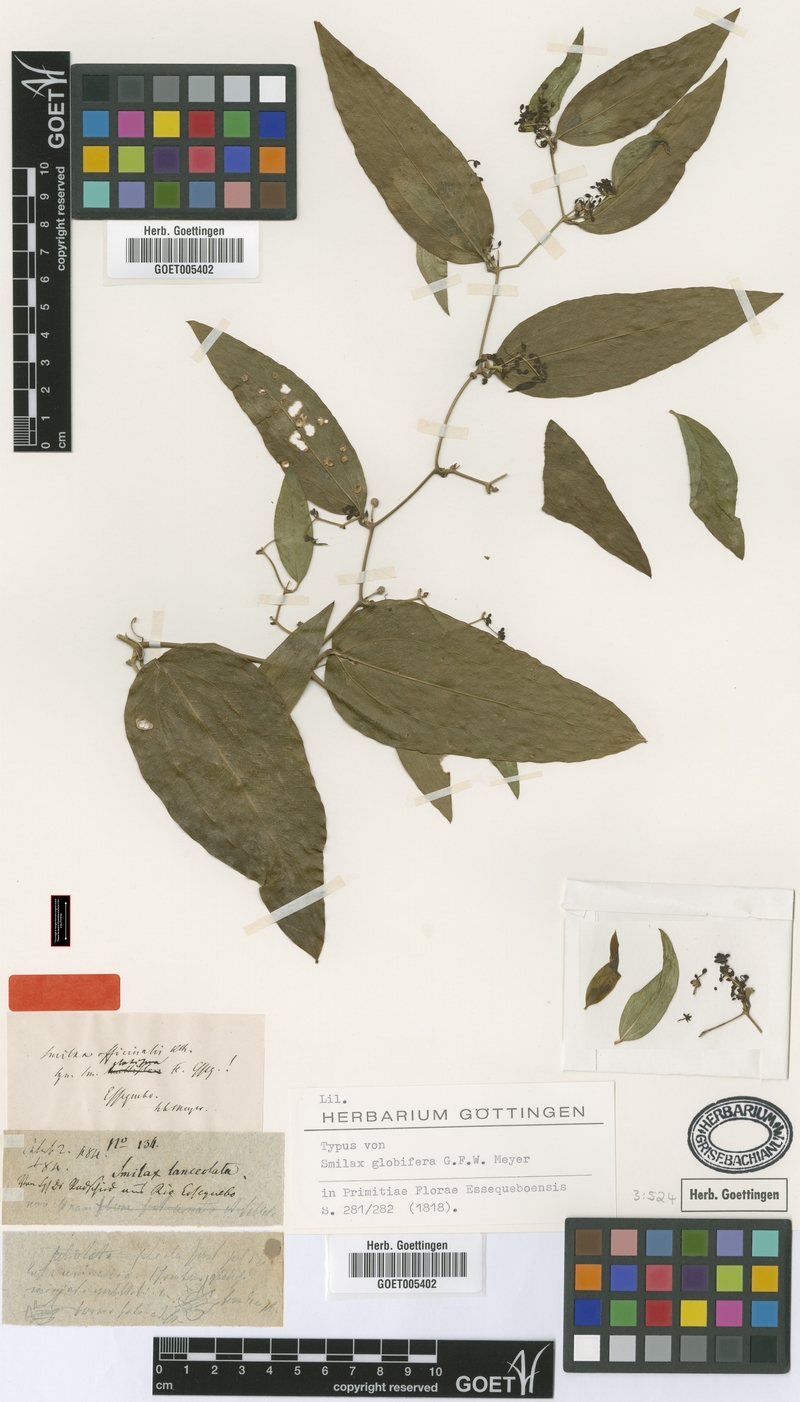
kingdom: Plantae
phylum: Tracheophyta
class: Liliopsida
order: Liliales
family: Smilacaceae
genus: Smilax
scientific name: Smilax oblongata
